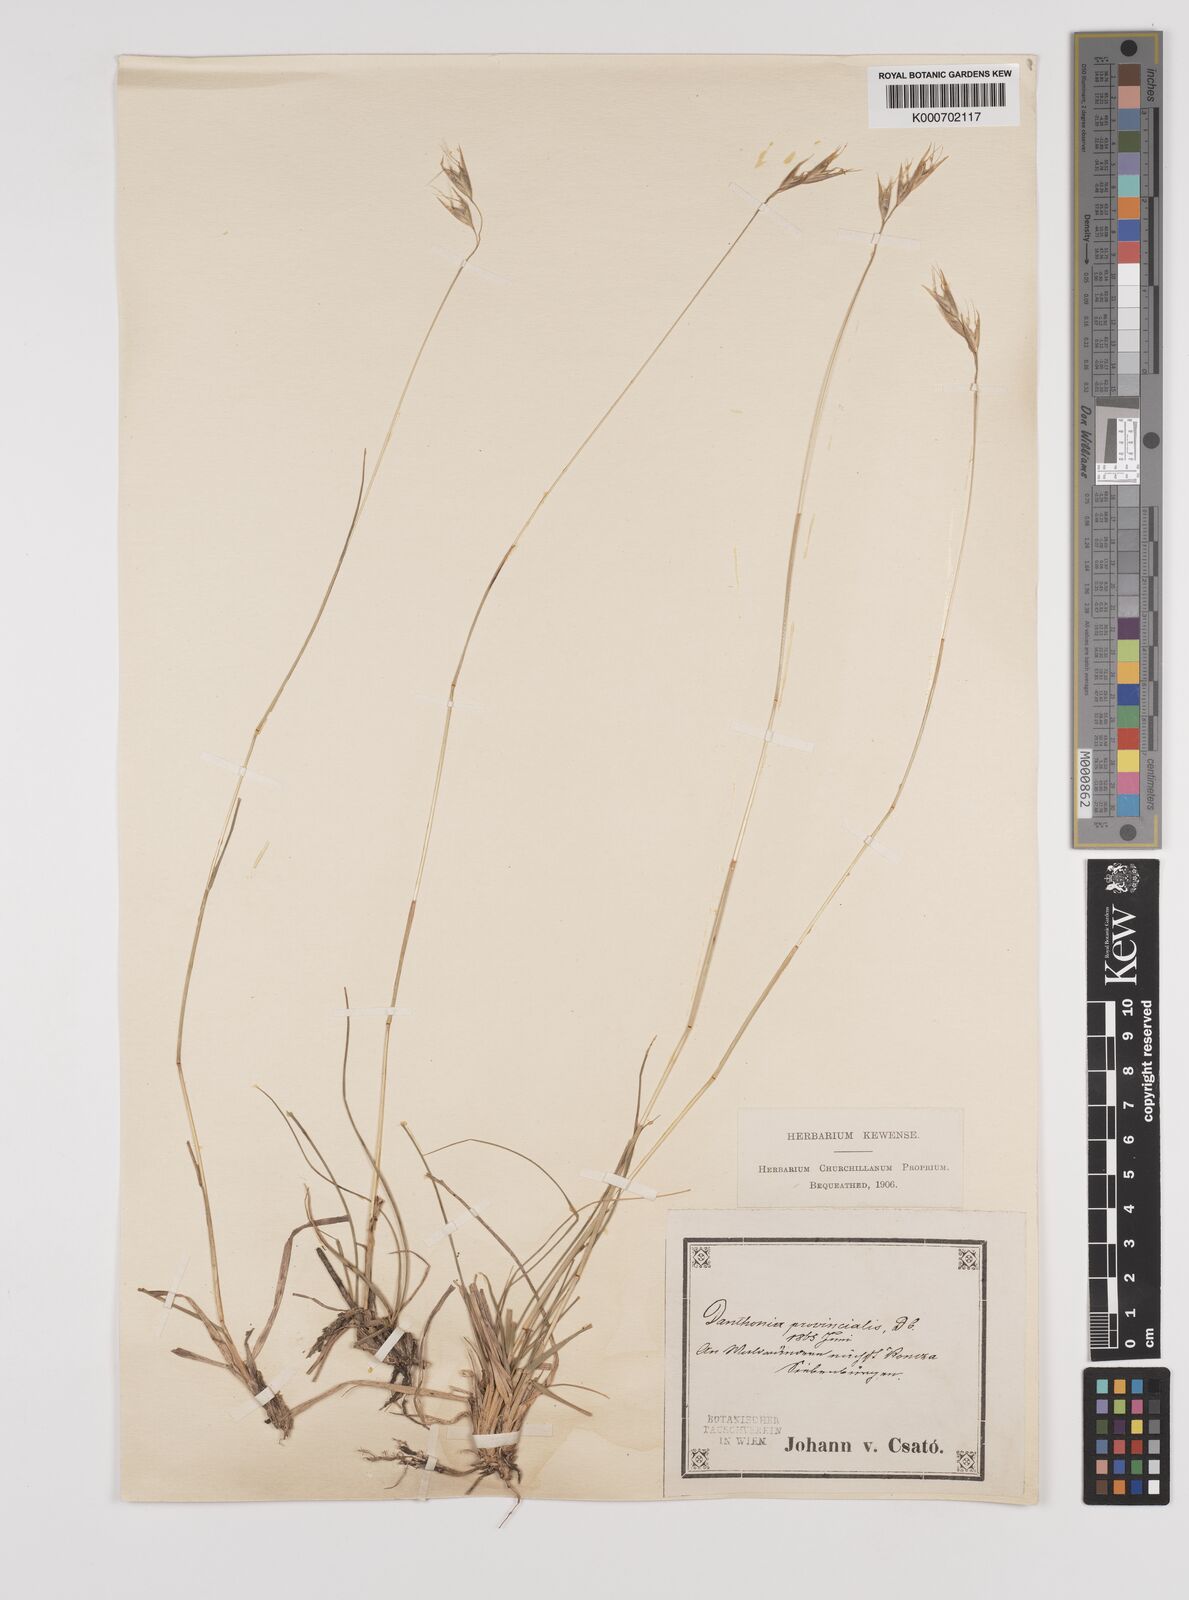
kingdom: Plantae
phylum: Tracheophyta
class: Liliopsida
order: Poales
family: Poaceae
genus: Danthonia
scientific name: Danthonia alpina
